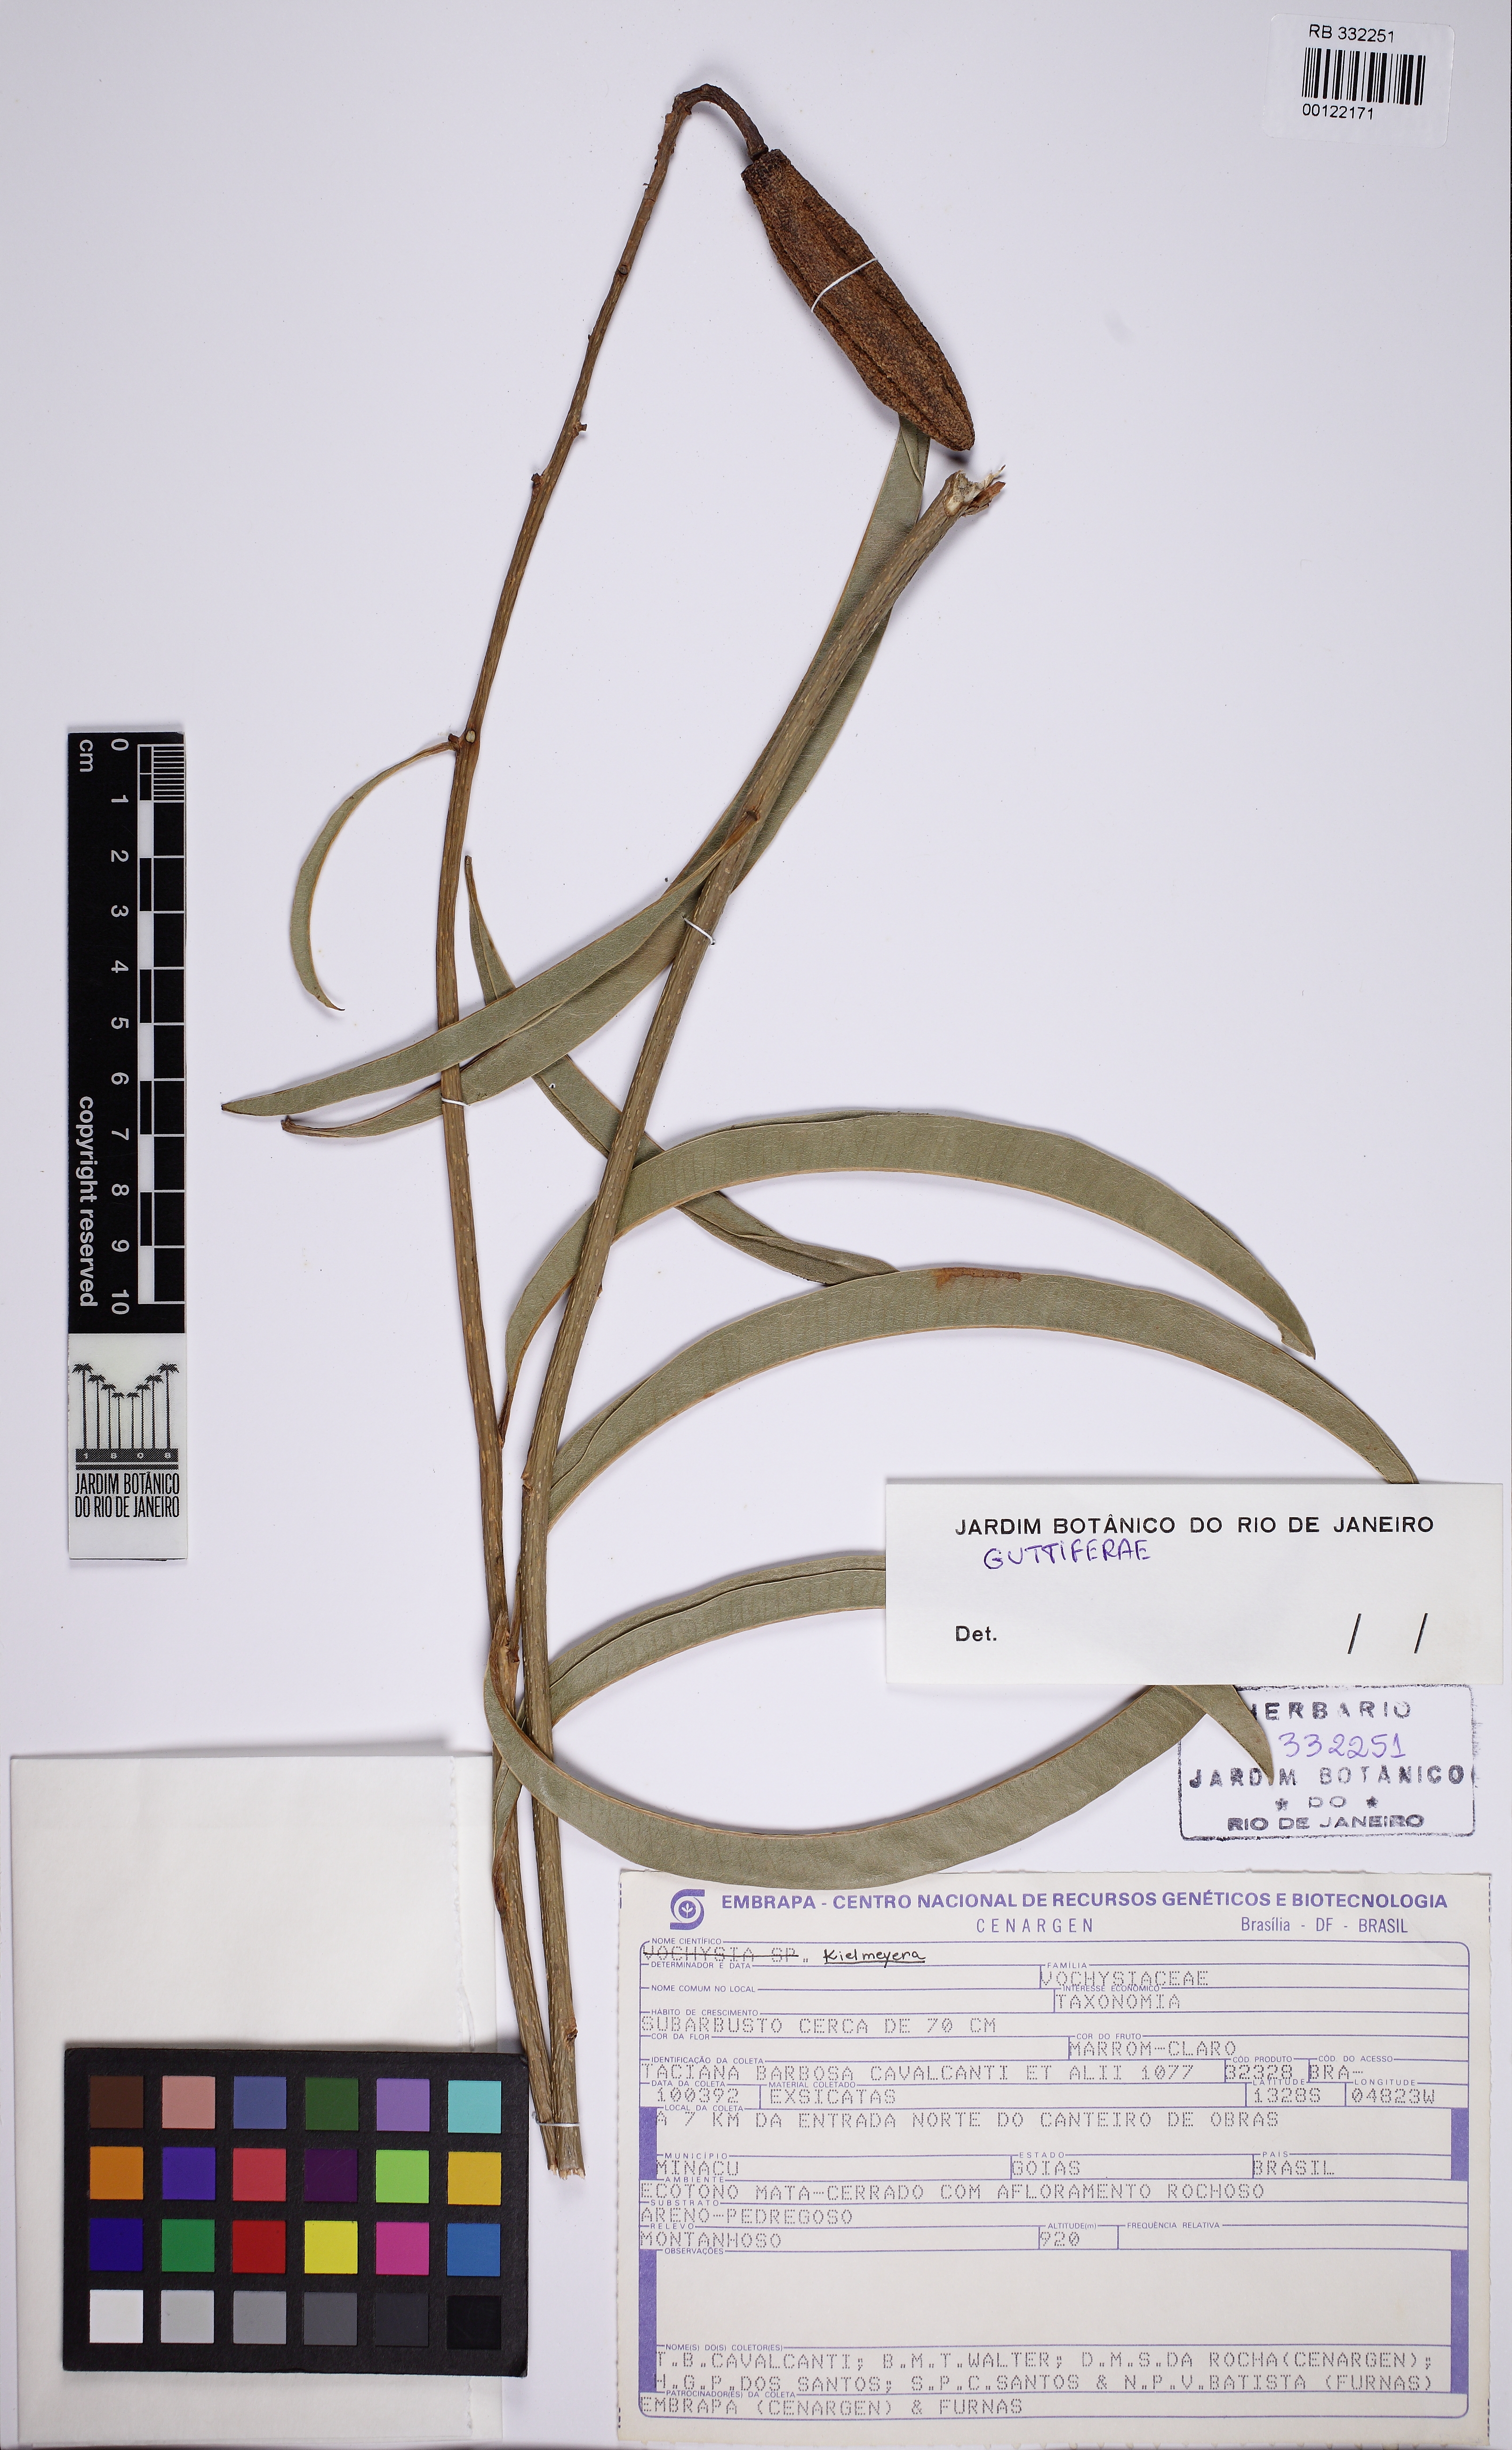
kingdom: Plantae
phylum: Tracheophyta
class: Magnoliopsida
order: Malpighiales
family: Calophyllaceae
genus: Kielmeyera
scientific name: Kielmeyera abdita
